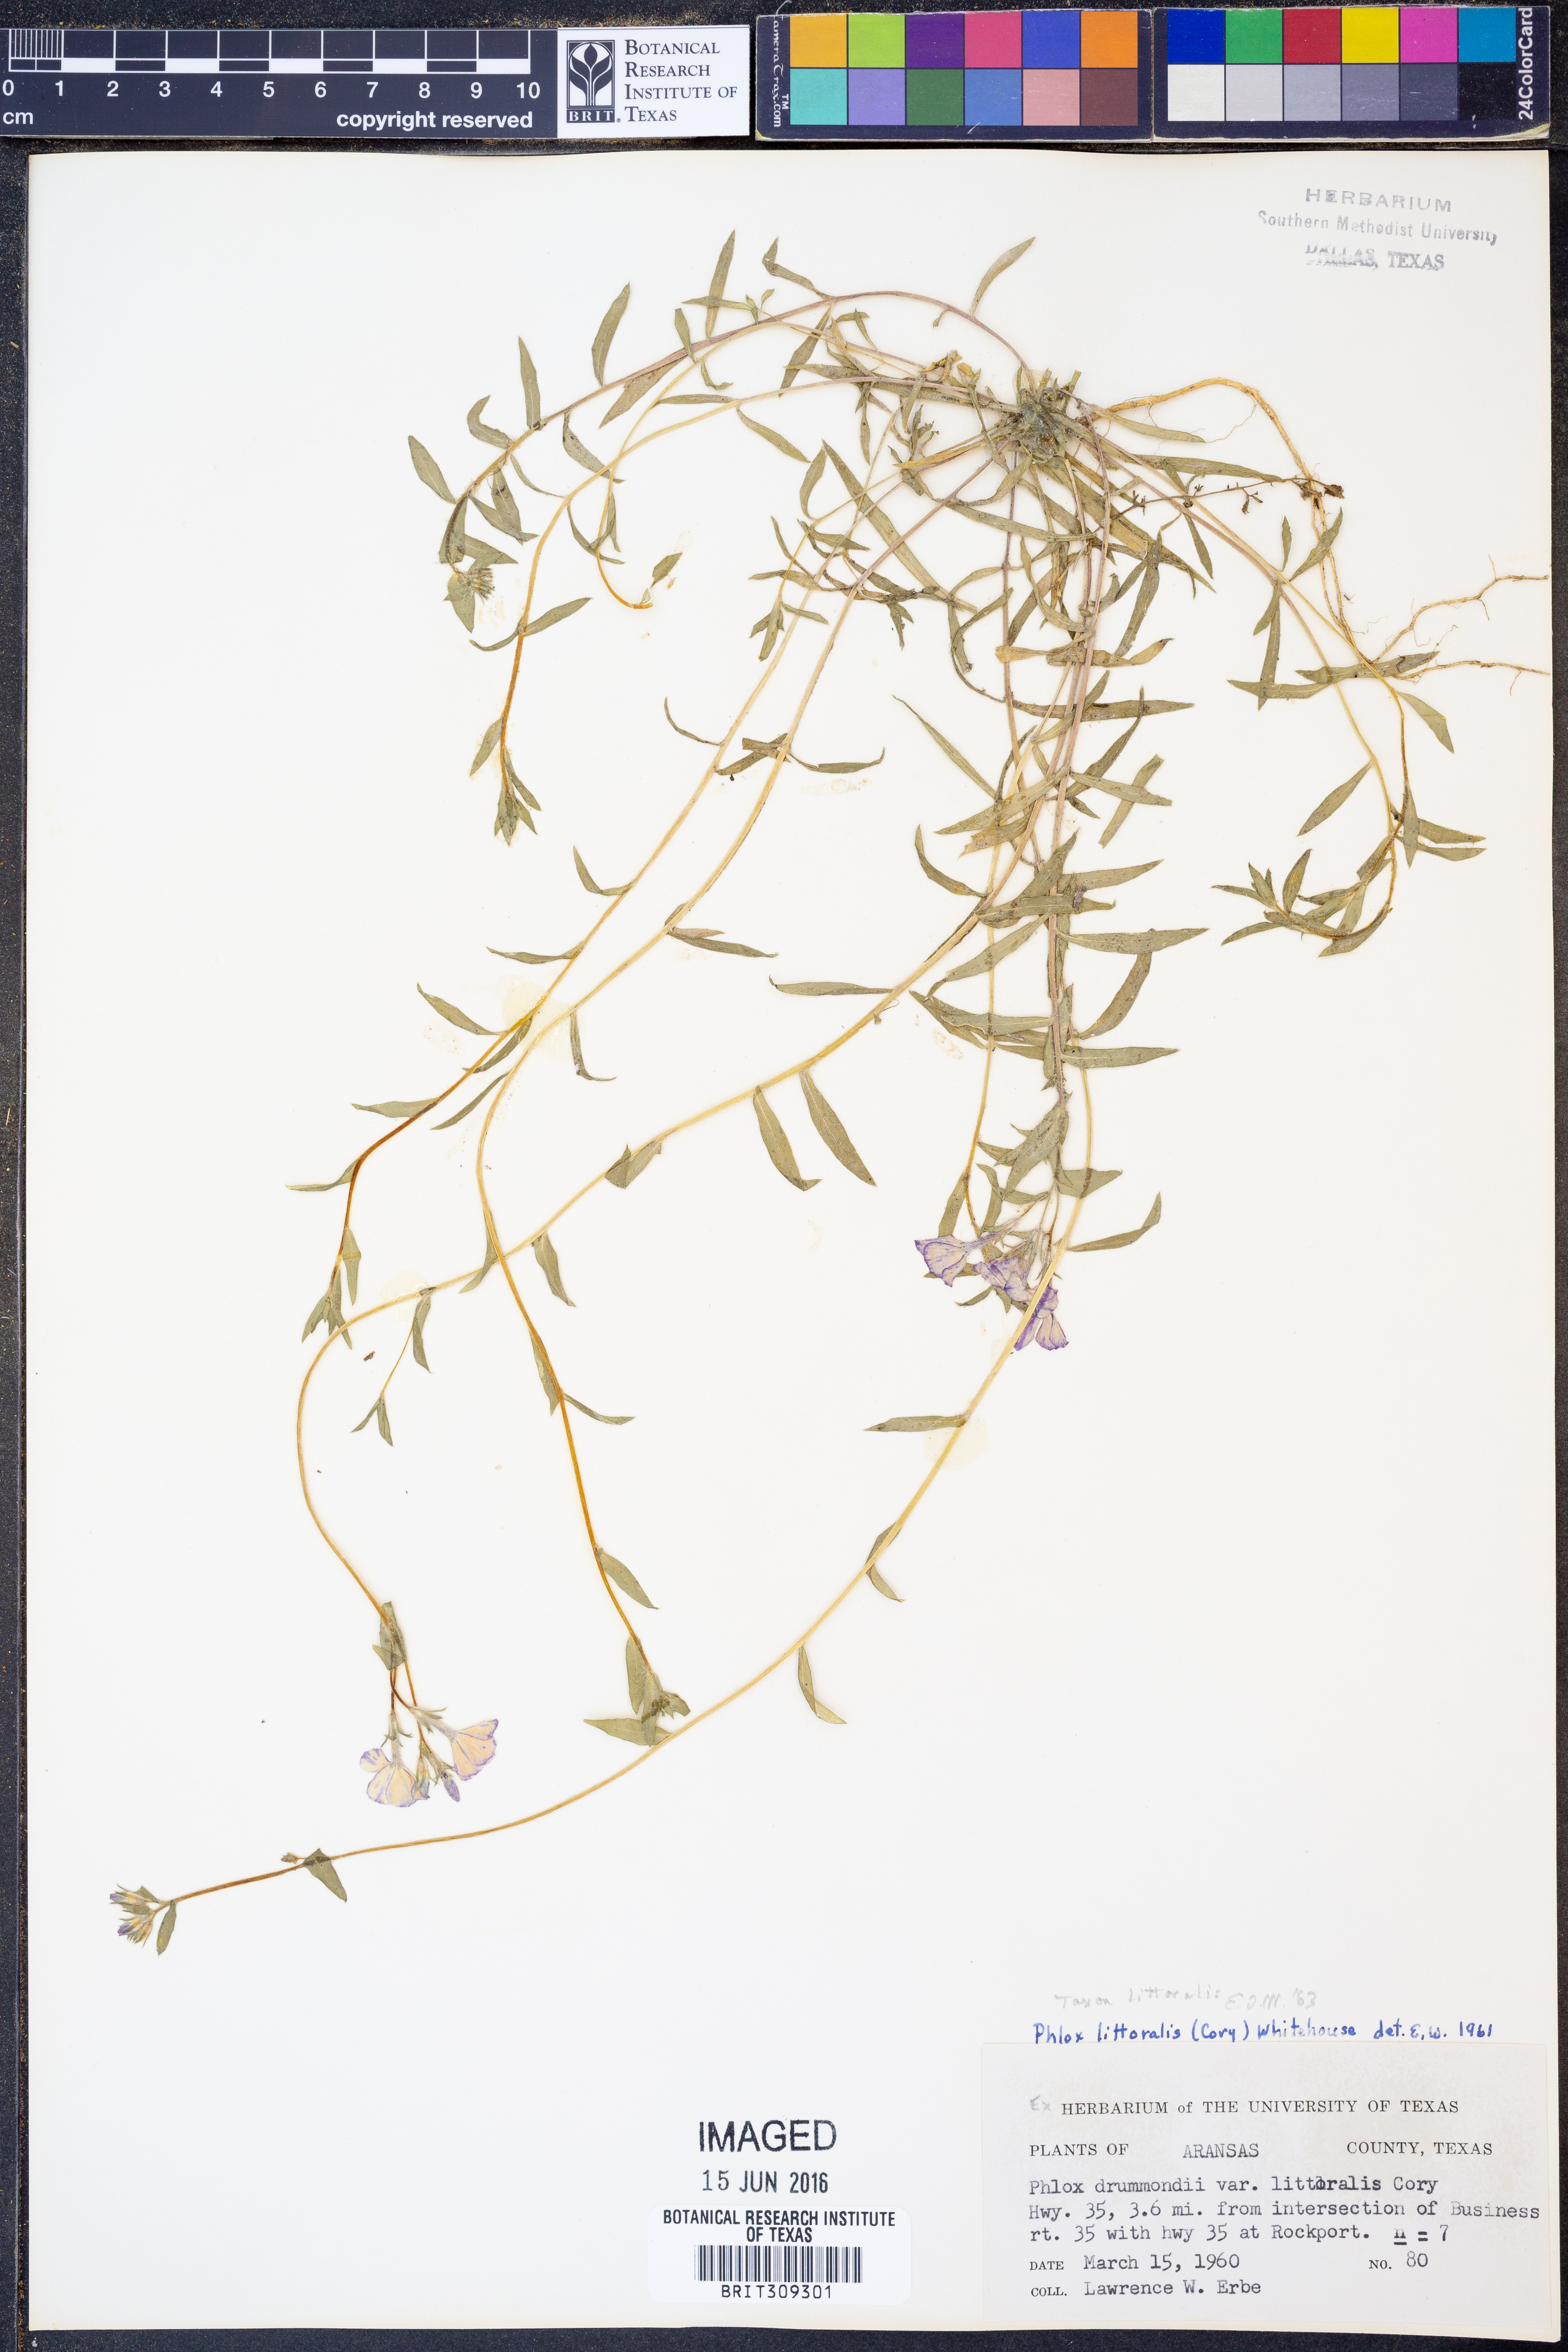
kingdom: Plantae
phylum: Tracheophyta
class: Magnoliopsida
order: Ericales
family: Polemoniaceae
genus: Phlox
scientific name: Phlox glabriflora
